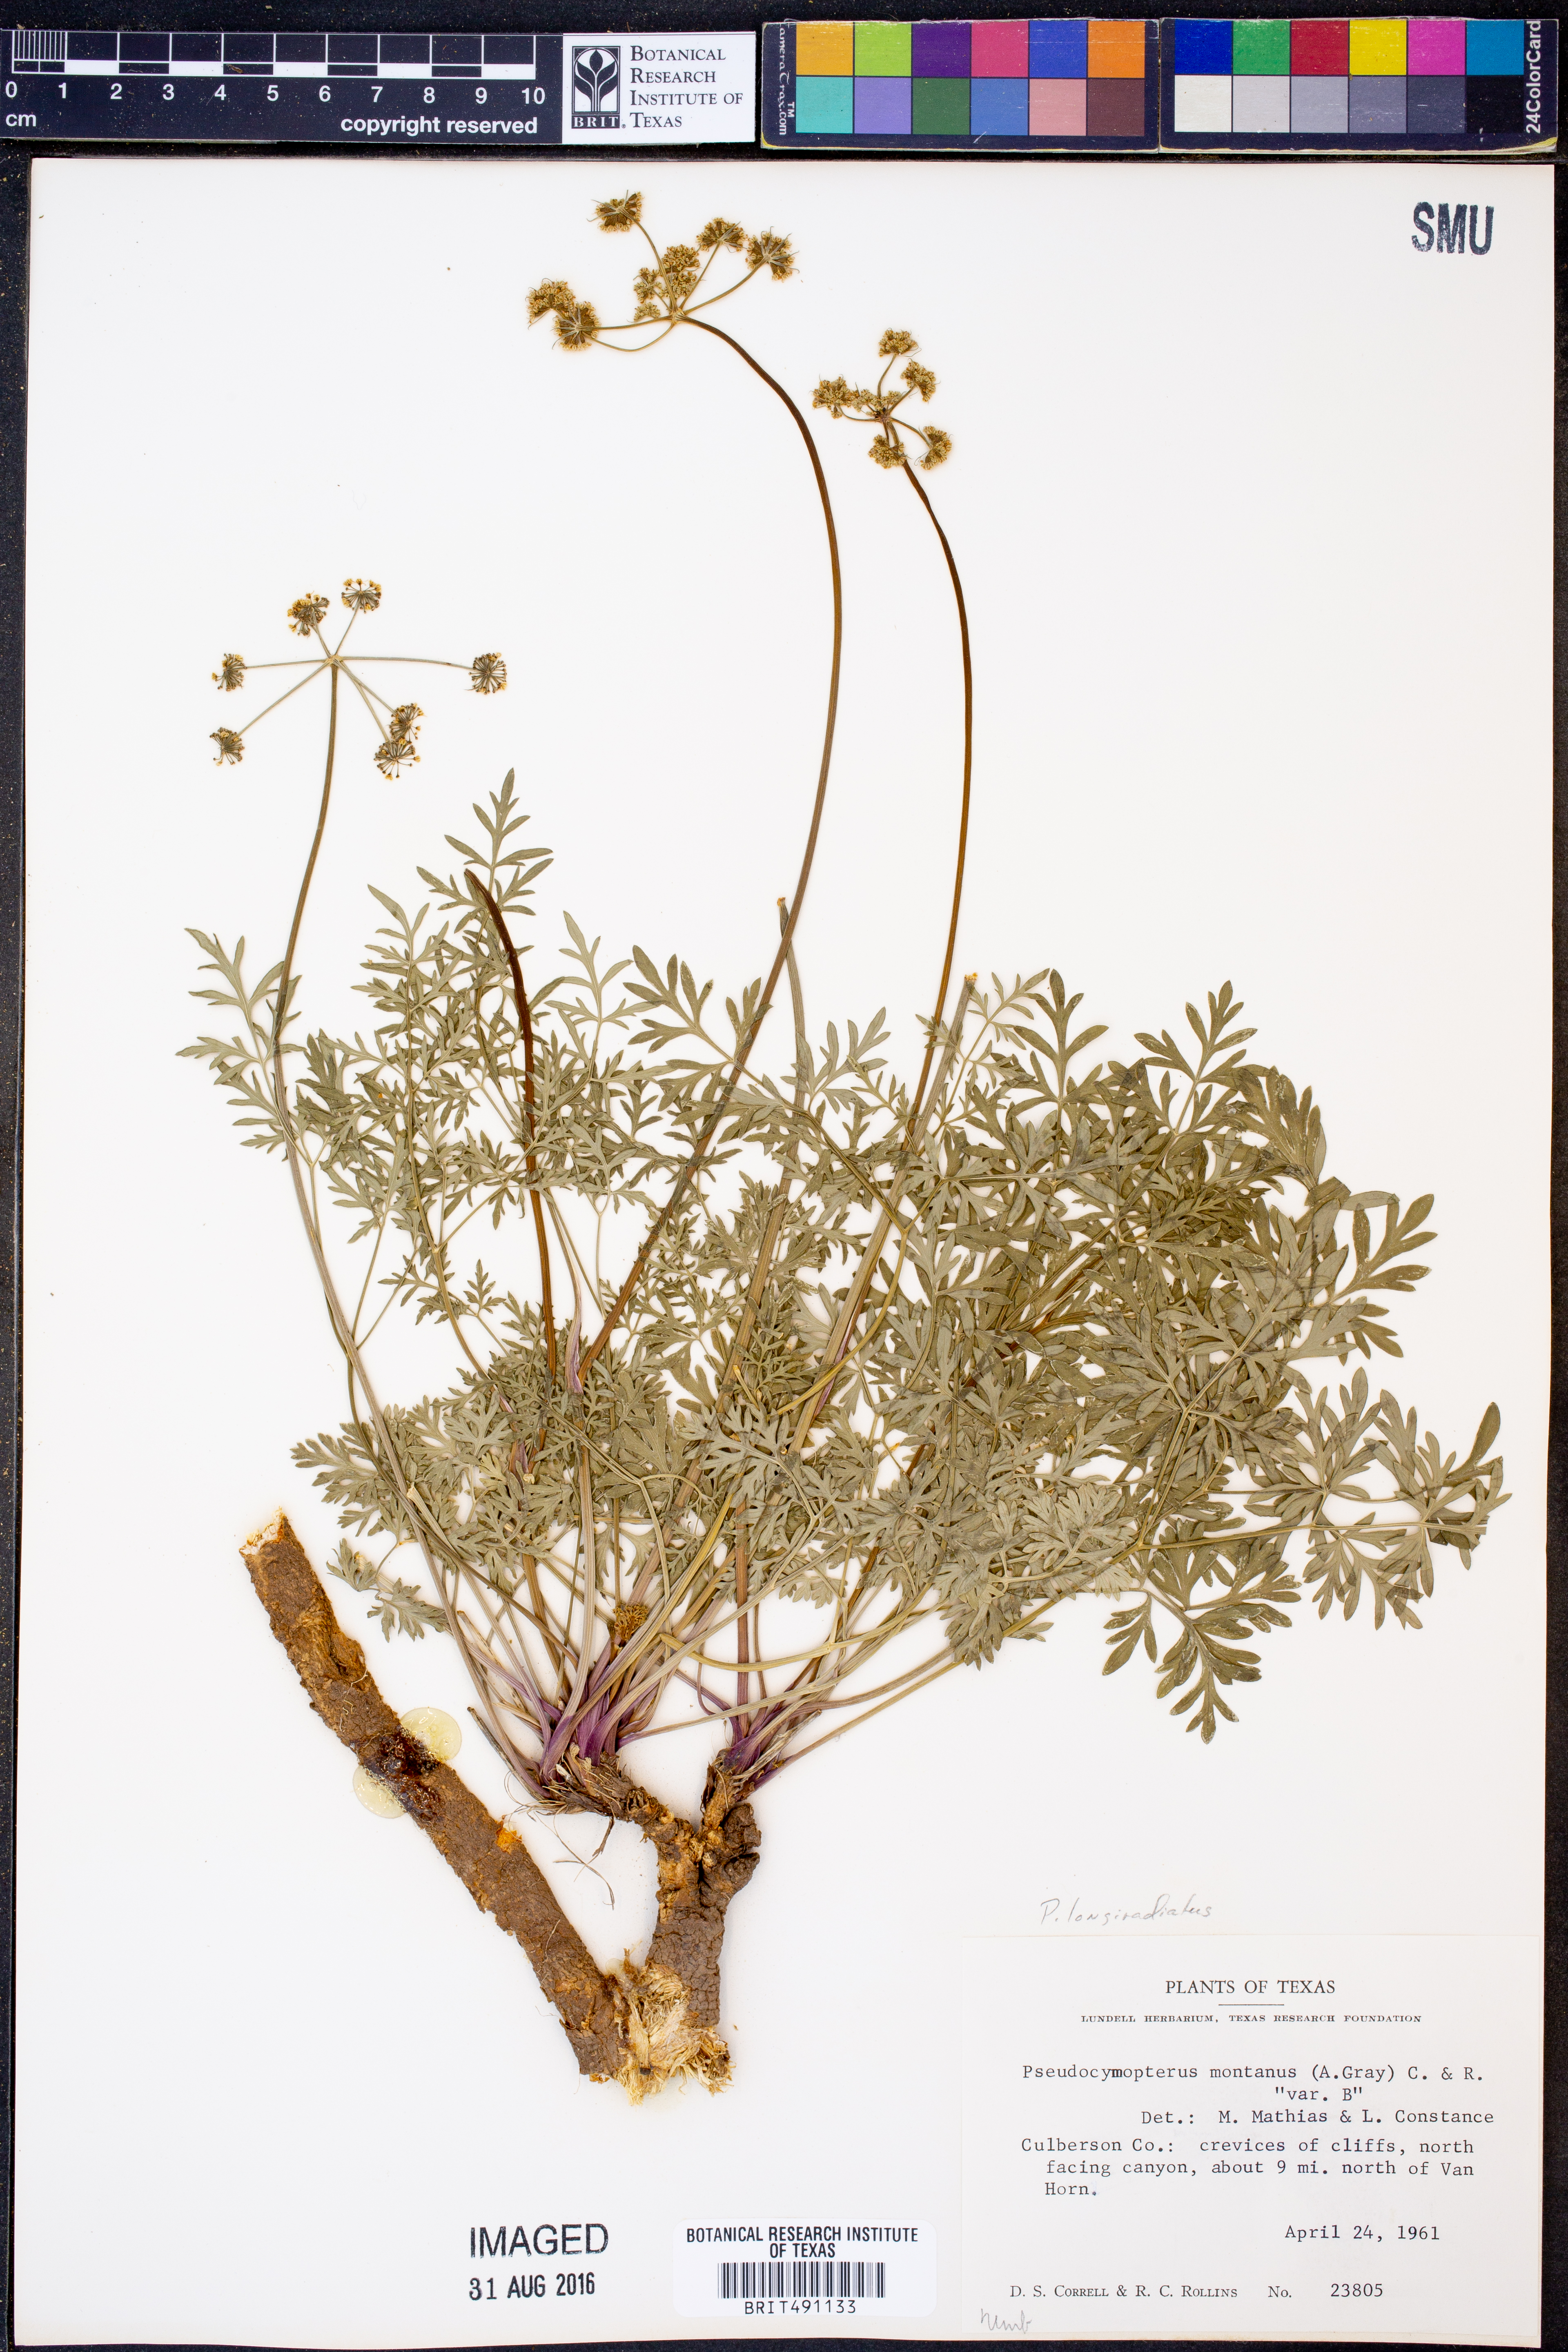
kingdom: Plantae
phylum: Tracheophyta
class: Magnoliopsida
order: Apiales
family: Apiaceae
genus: Pseudocymopterus
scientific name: Pseudocymopterus longiradiatus
